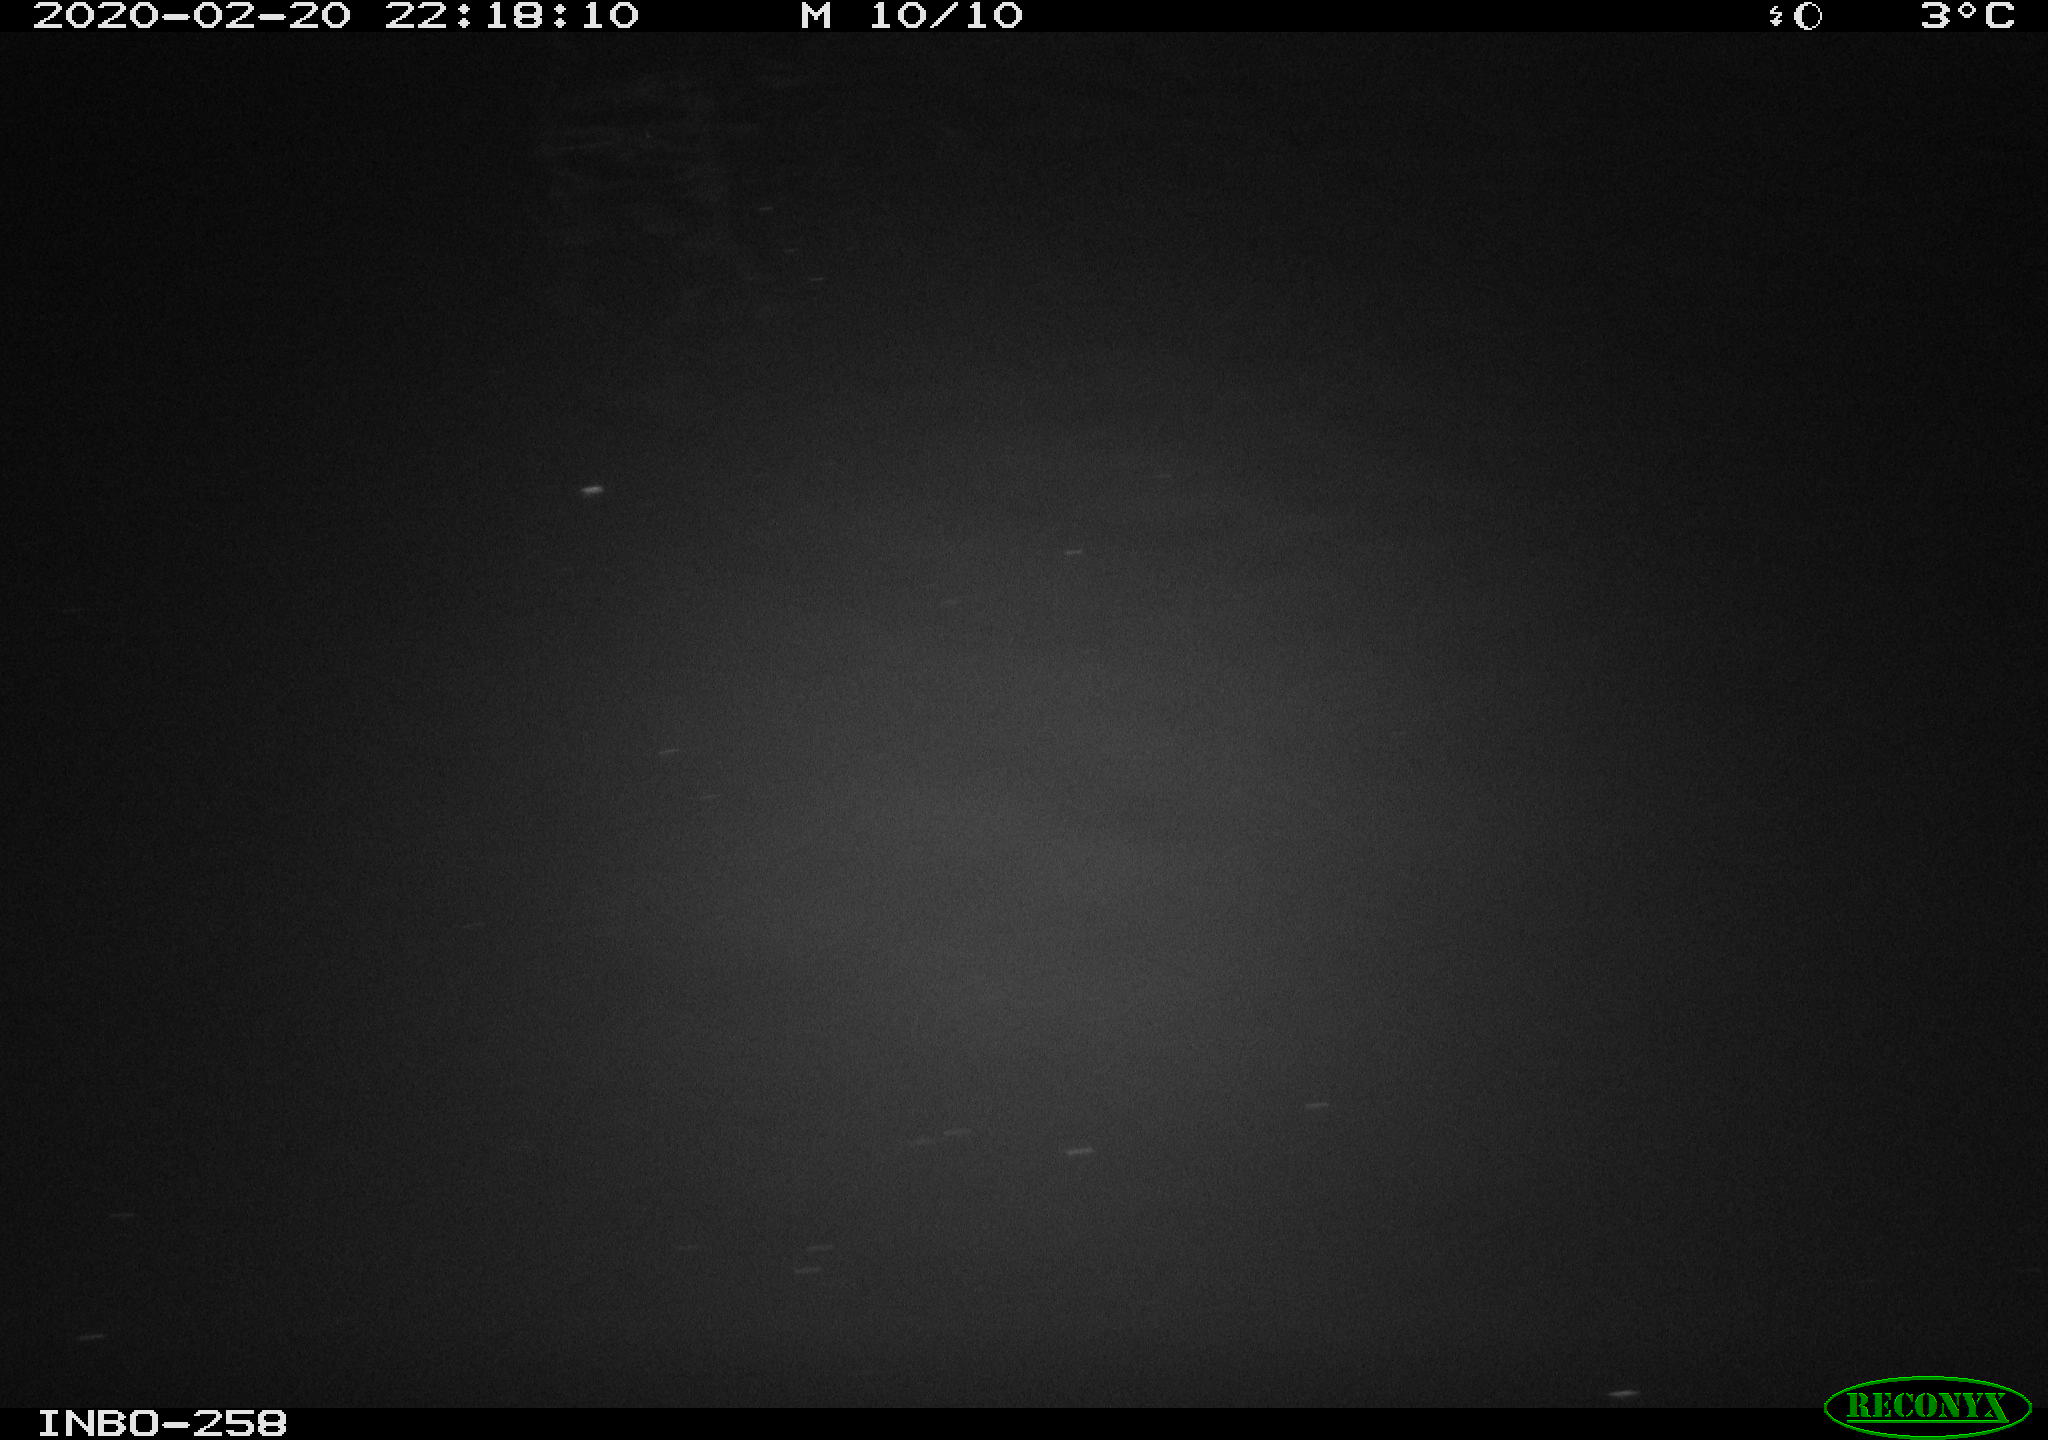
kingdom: Animalia
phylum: Chordata
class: Aves
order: Anseriformes
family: Anatidae
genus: Anas
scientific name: Anas platyrhynchos
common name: Mallard
